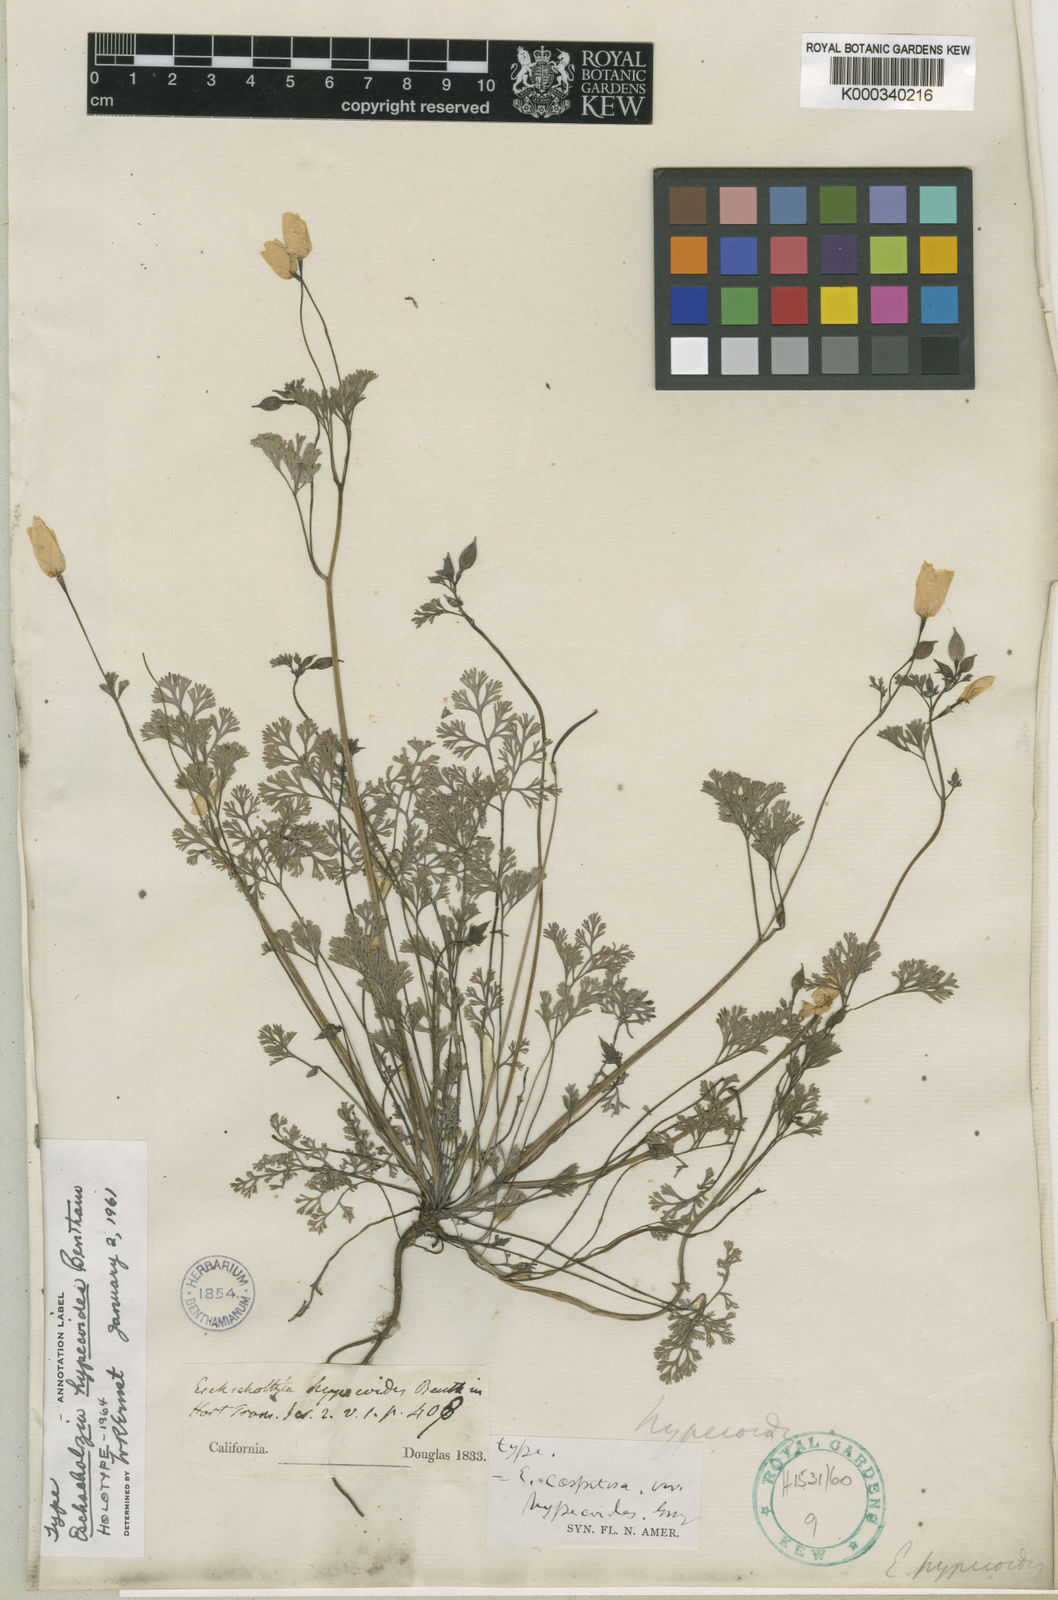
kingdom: Plantae
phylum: Tracheophyta
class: Magnoliopsida
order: Ranunculales
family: Papaveraceae
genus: Eschscholzia
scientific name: Eschscholzia hypecoides
